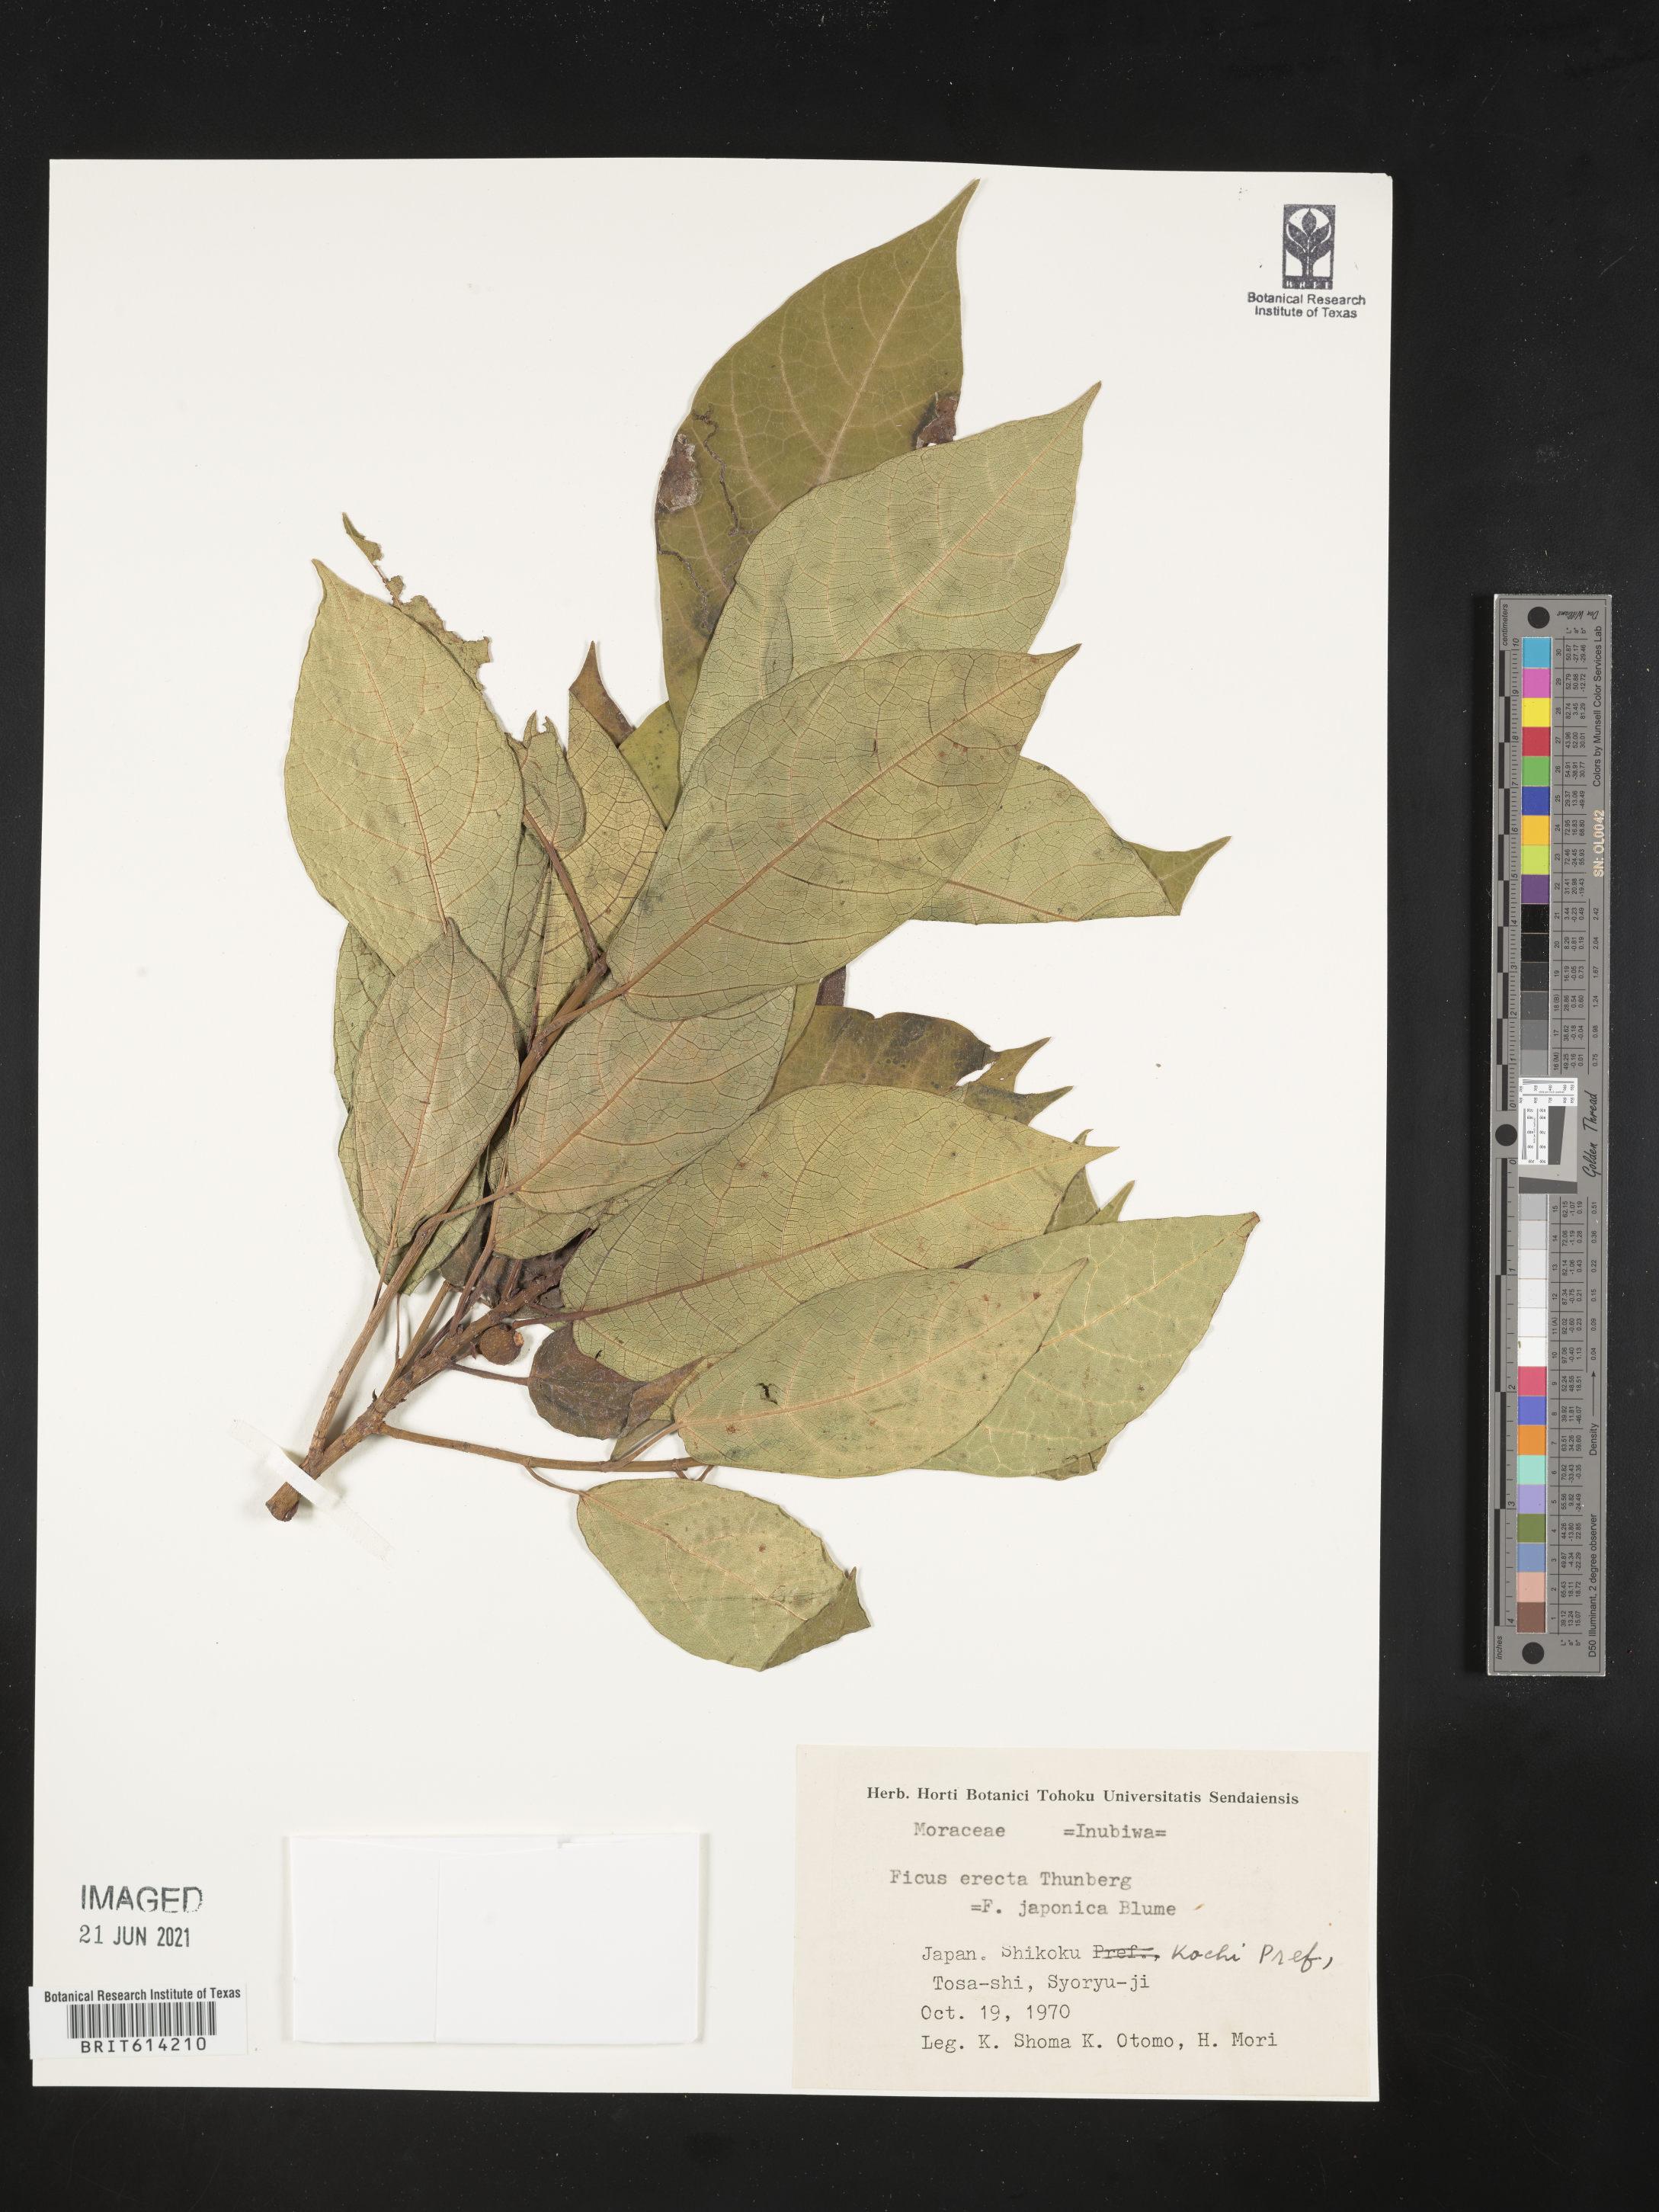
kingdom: Plantae
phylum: Tracheophyta
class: Magnoliopsida
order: Rosales
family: Moraceae
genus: Ficus
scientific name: Ficus erecta
